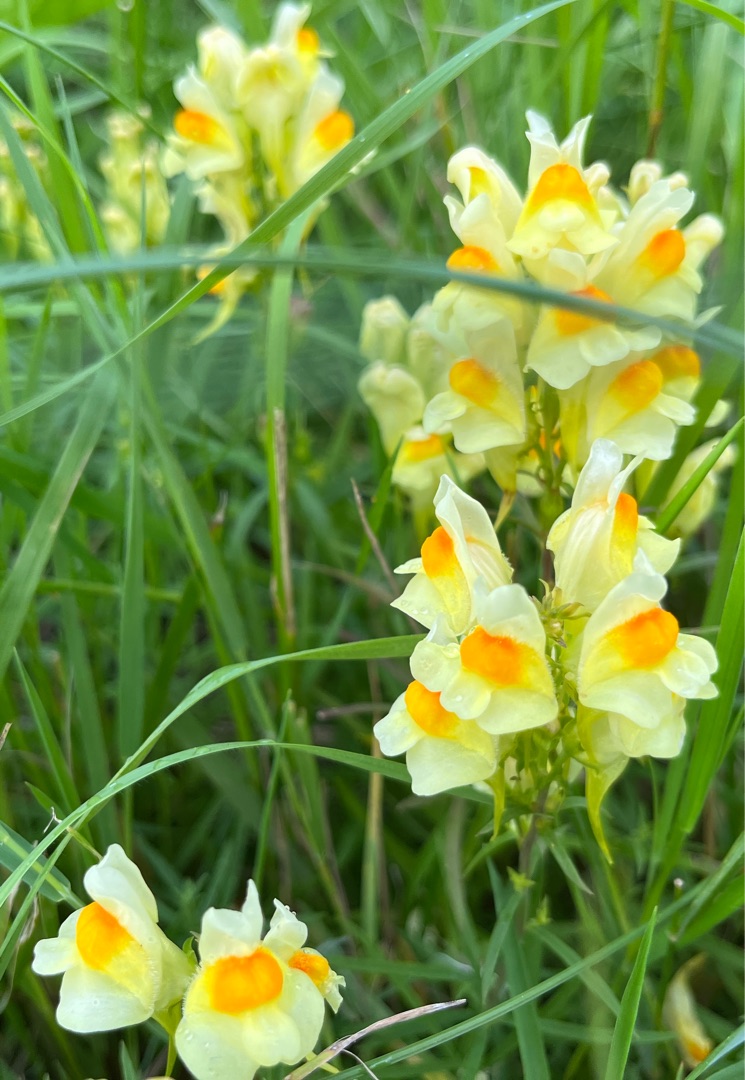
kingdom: Plantae
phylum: Tracheophyta
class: Magnoliopsida
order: Lamiales
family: Plantaginaceae
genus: Linaria
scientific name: Linaria vulgaris
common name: Almindelig torskemund
